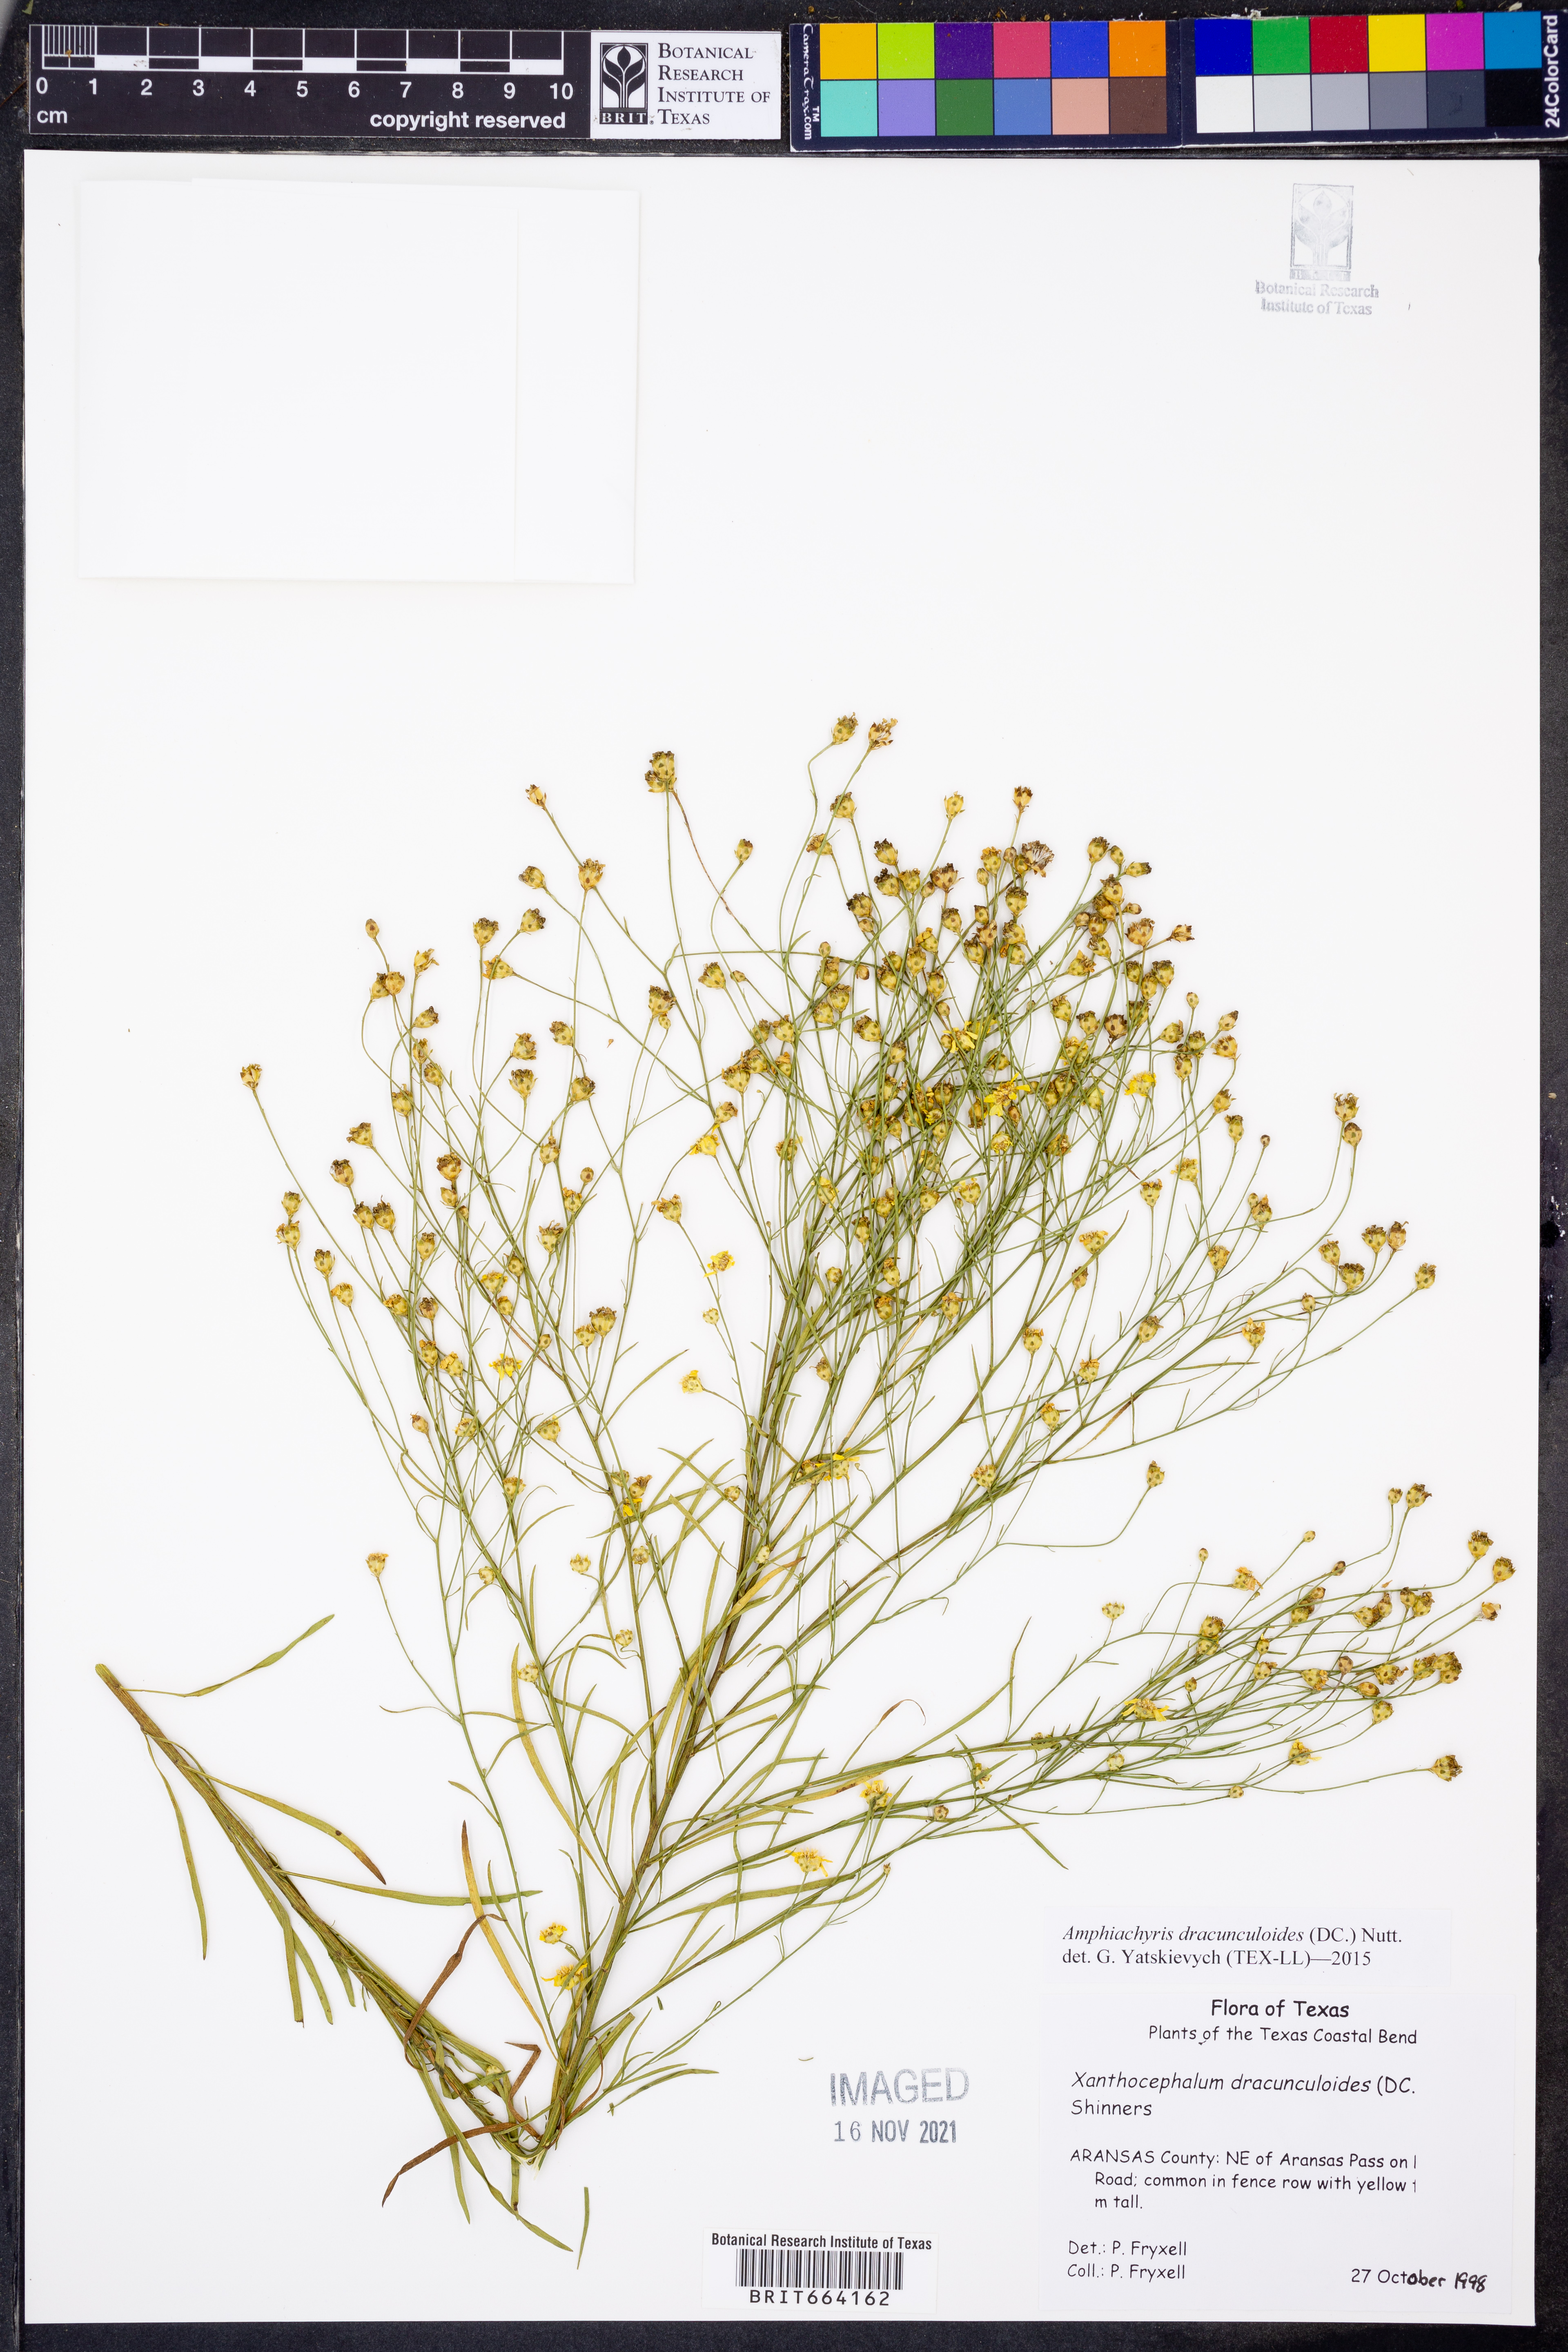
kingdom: Plantae
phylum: Tracheophyta
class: Magnoliopsida
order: Asterales
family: Asteraceae
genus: Amphiachyris
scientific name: Amphiachyris dracunculoides
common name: Broomweed
